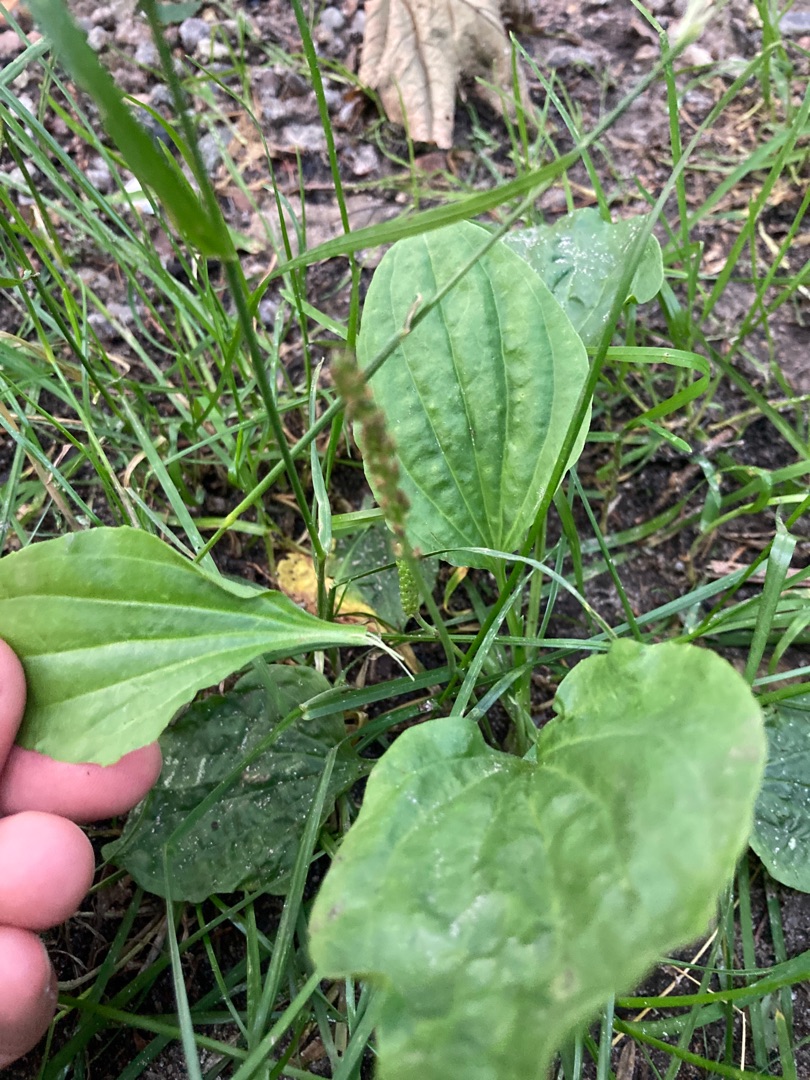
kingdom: Plantae
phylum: Tracheophyta
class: Magnoliopsida
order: Lamiales
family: Plantaginaceae
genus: Plantago
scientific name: Plantago major
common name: Glat vejbred
